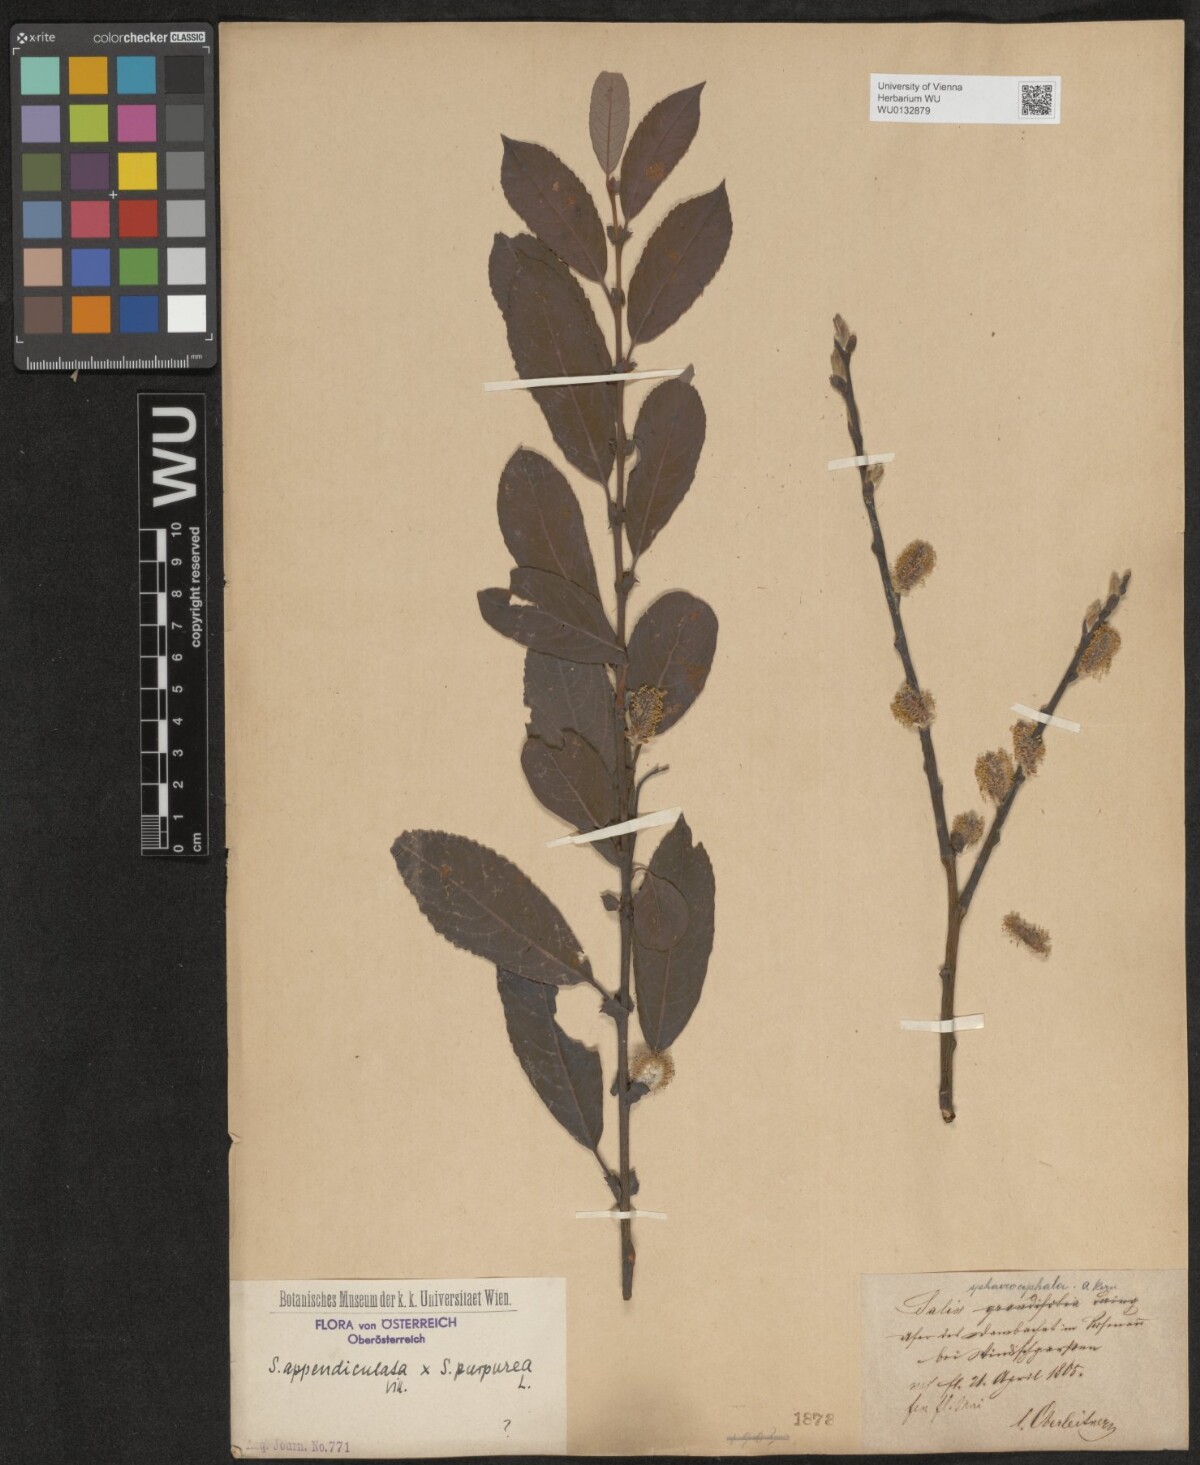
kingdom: Plantae
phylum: Tracheophyta
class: Magnoliopsida
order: Malpighiales
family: Salicaceae
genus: Salix
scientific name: Salix austriaca
